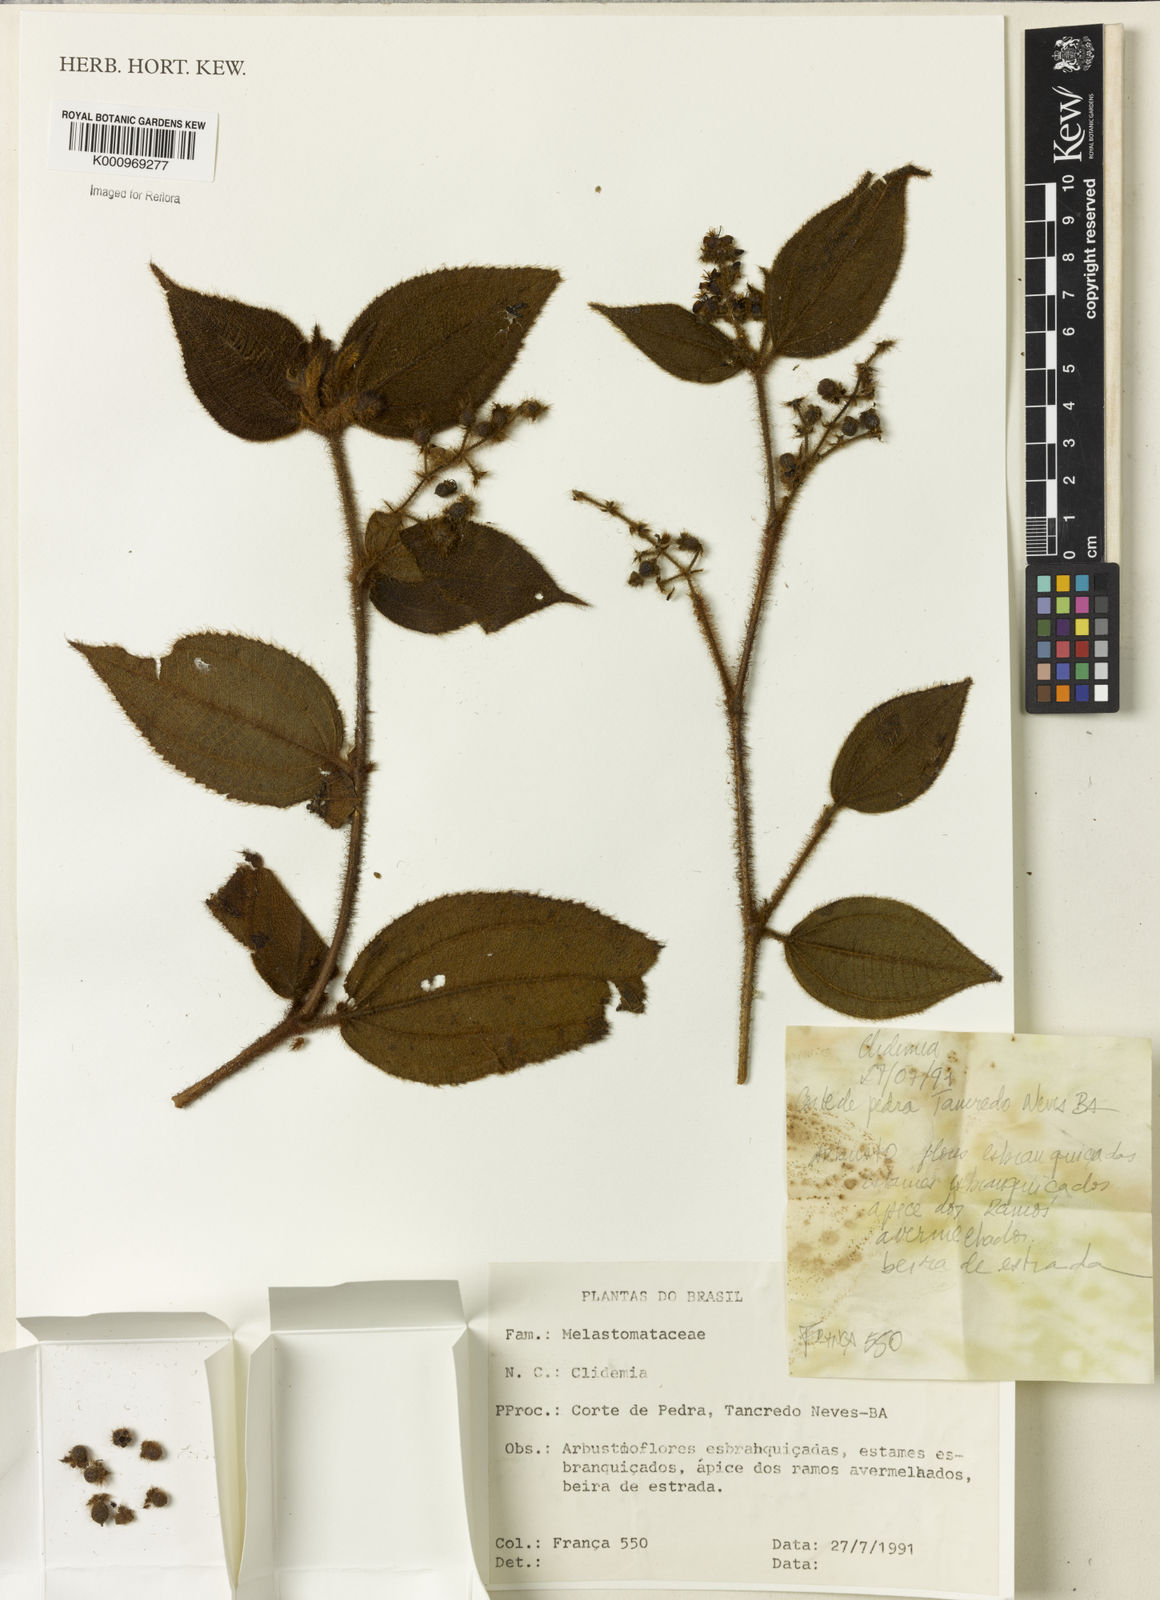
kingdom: Plantae
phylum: Tracheophyta
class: Magnoliopsida
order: Myrtales
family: Melastomataceae
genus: Miconia
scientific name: Miconia
